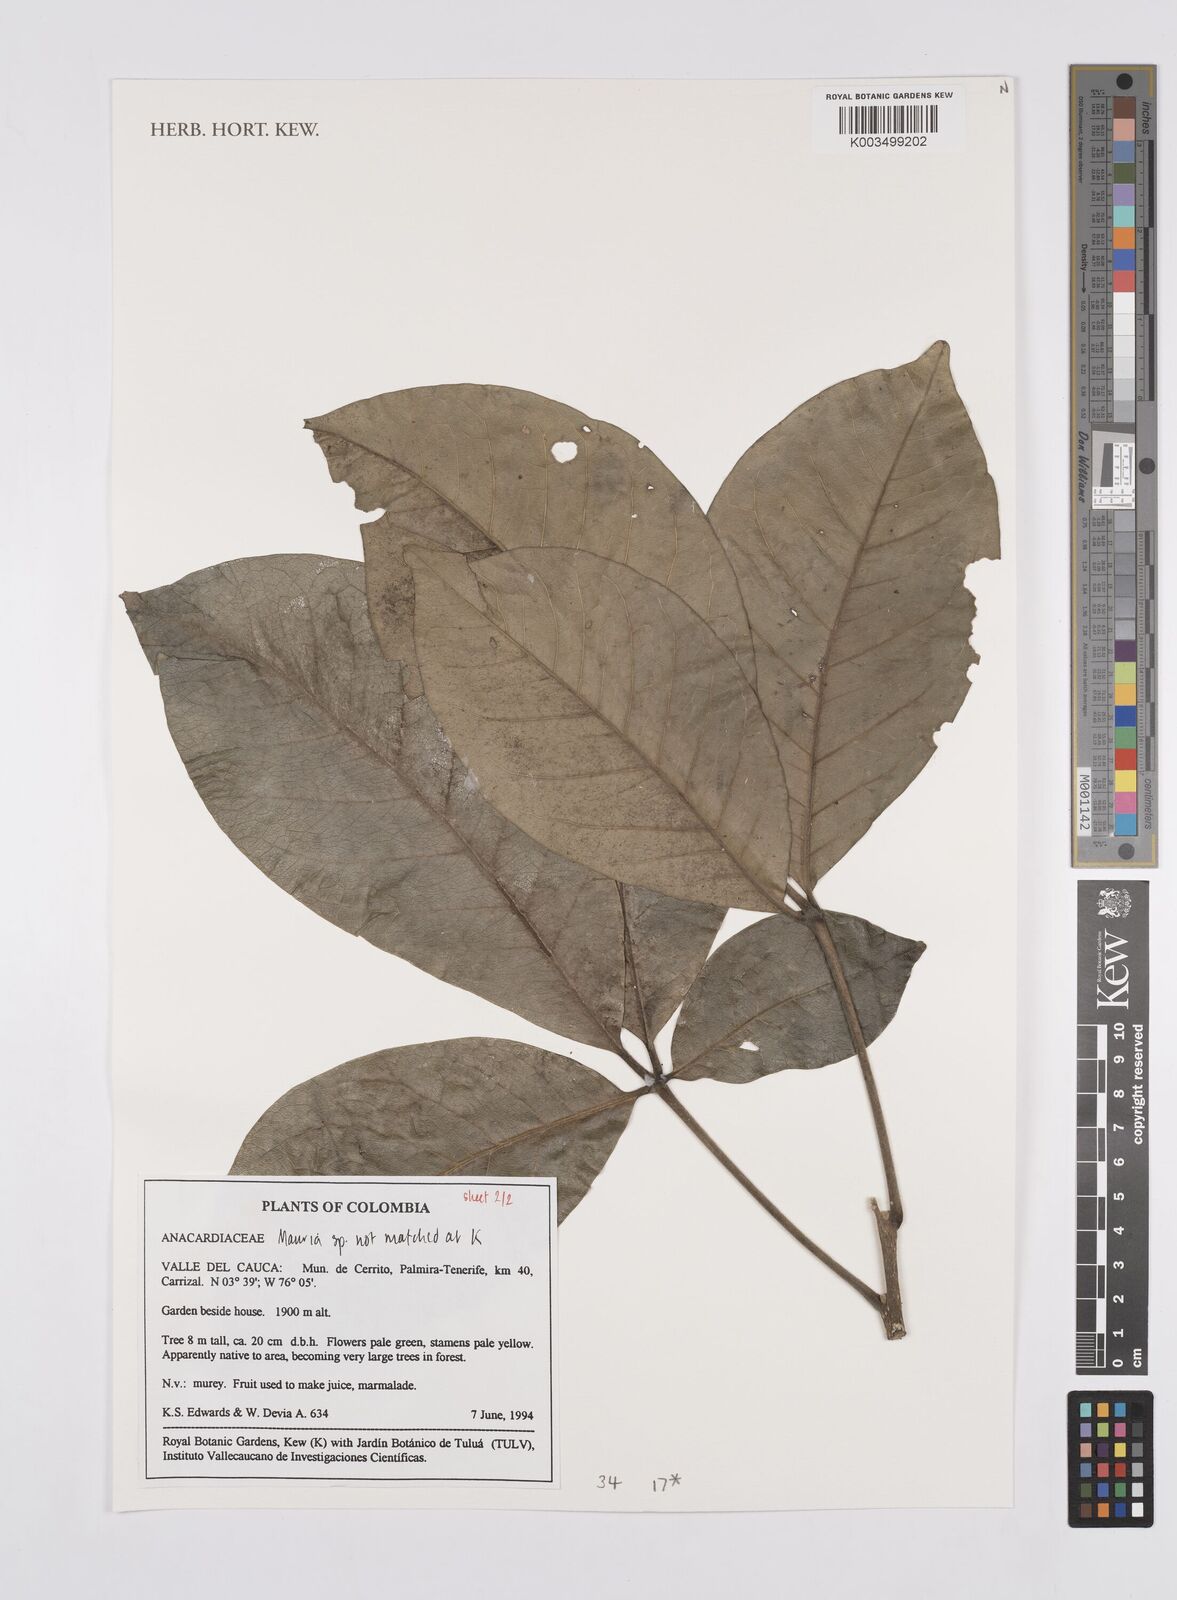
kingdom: Plantae
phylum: Tracheophyta
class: Magnoliopsida
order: Sapindales
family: Anacardiaceae
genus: Mauria
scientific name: Mauria
